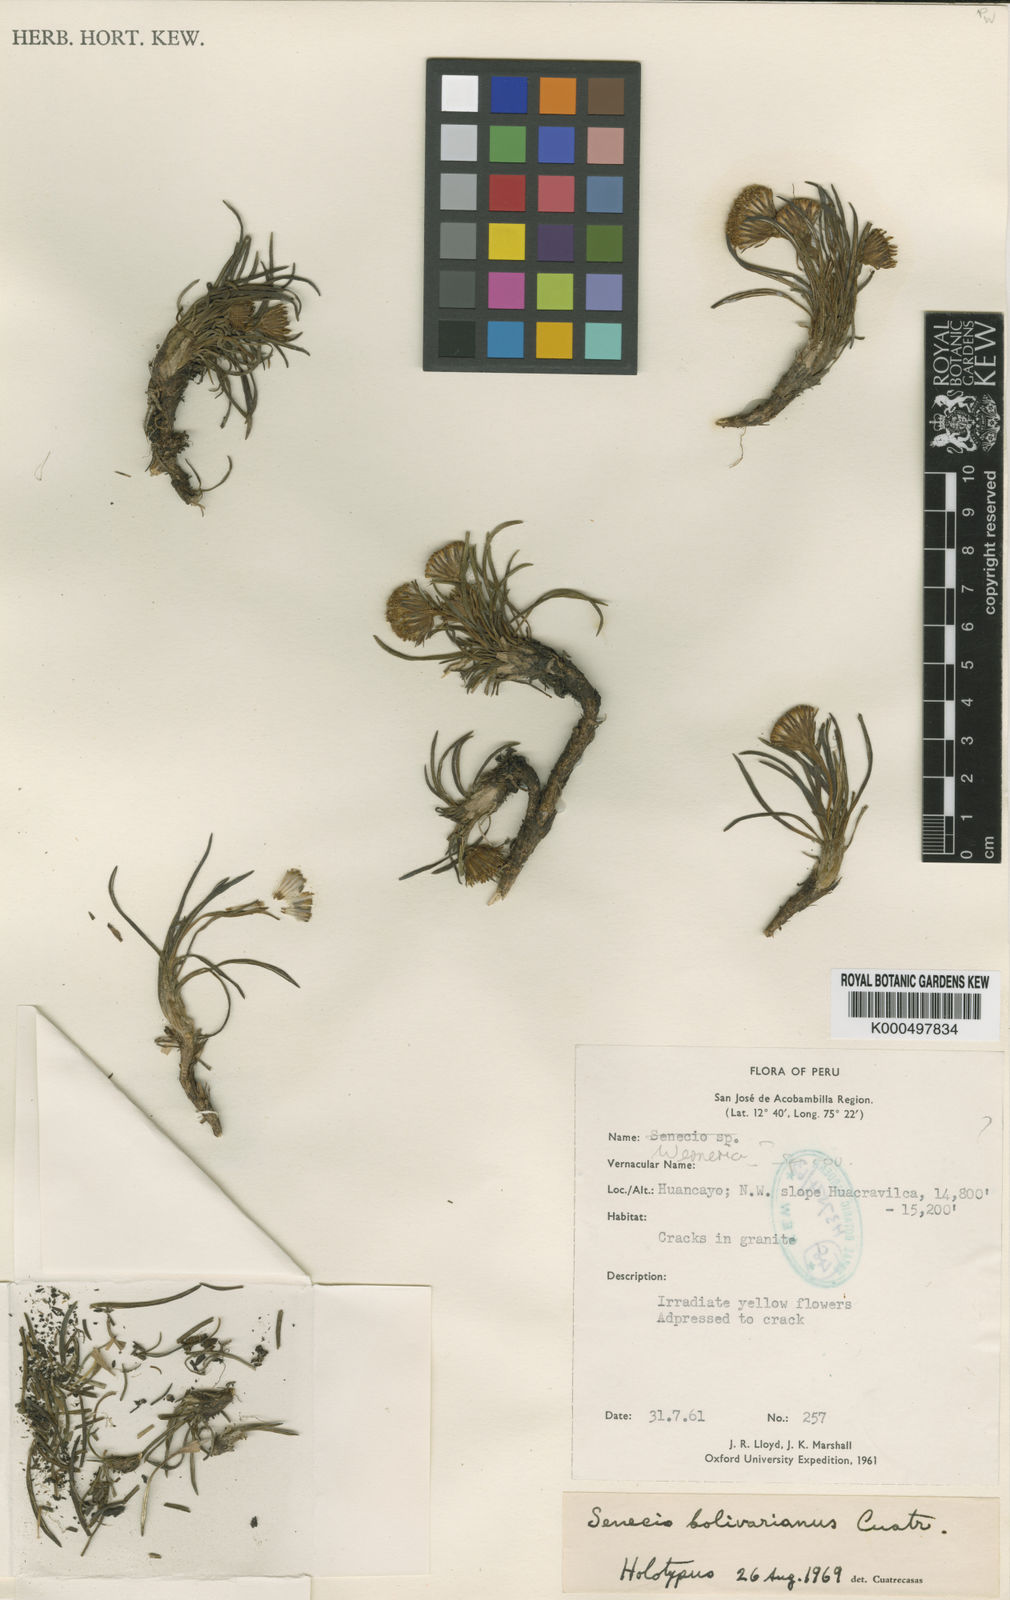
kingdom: Plantae
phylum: Tracheophyta
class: Magnoliopsida
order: Asterales
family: Asteraceae
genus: Senecio
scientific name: Senecio bolivarianus
